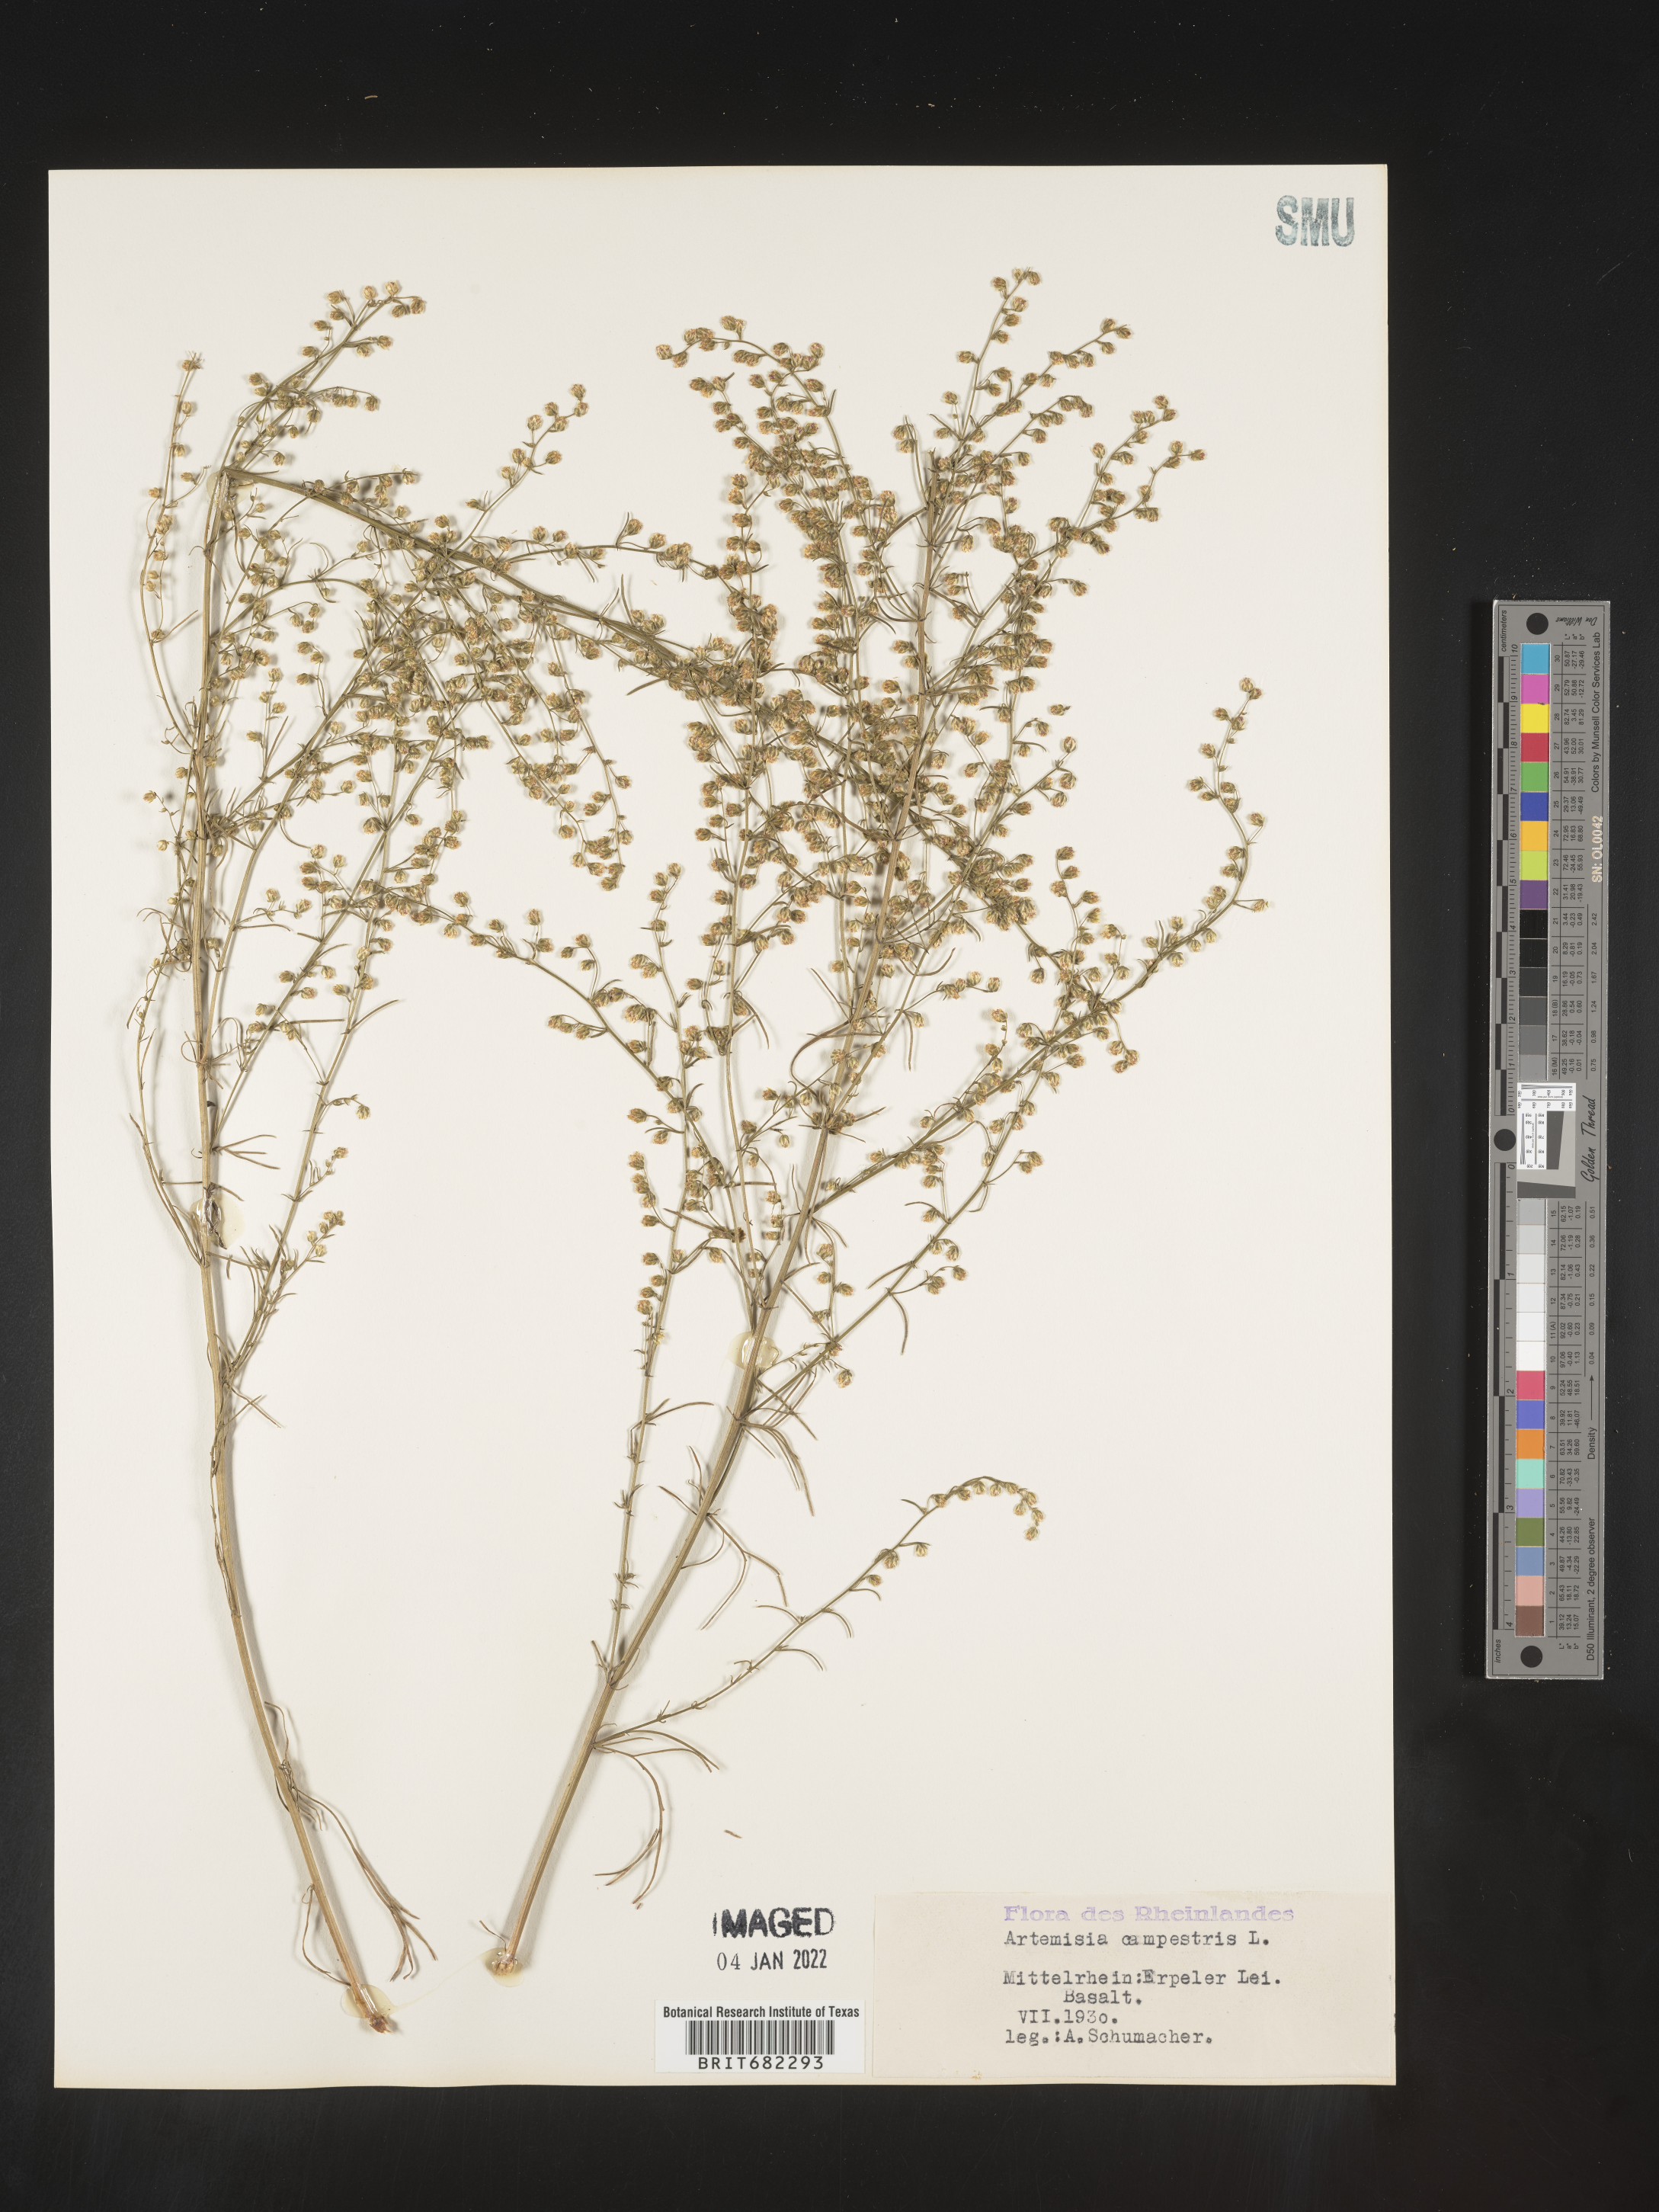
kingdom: Plantae
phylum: Tracheophyta
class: Magnoliopsida
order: Asterales
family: Asteraceae
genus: Artemisia
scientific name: Artemisia campestris
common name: Field wormwood
